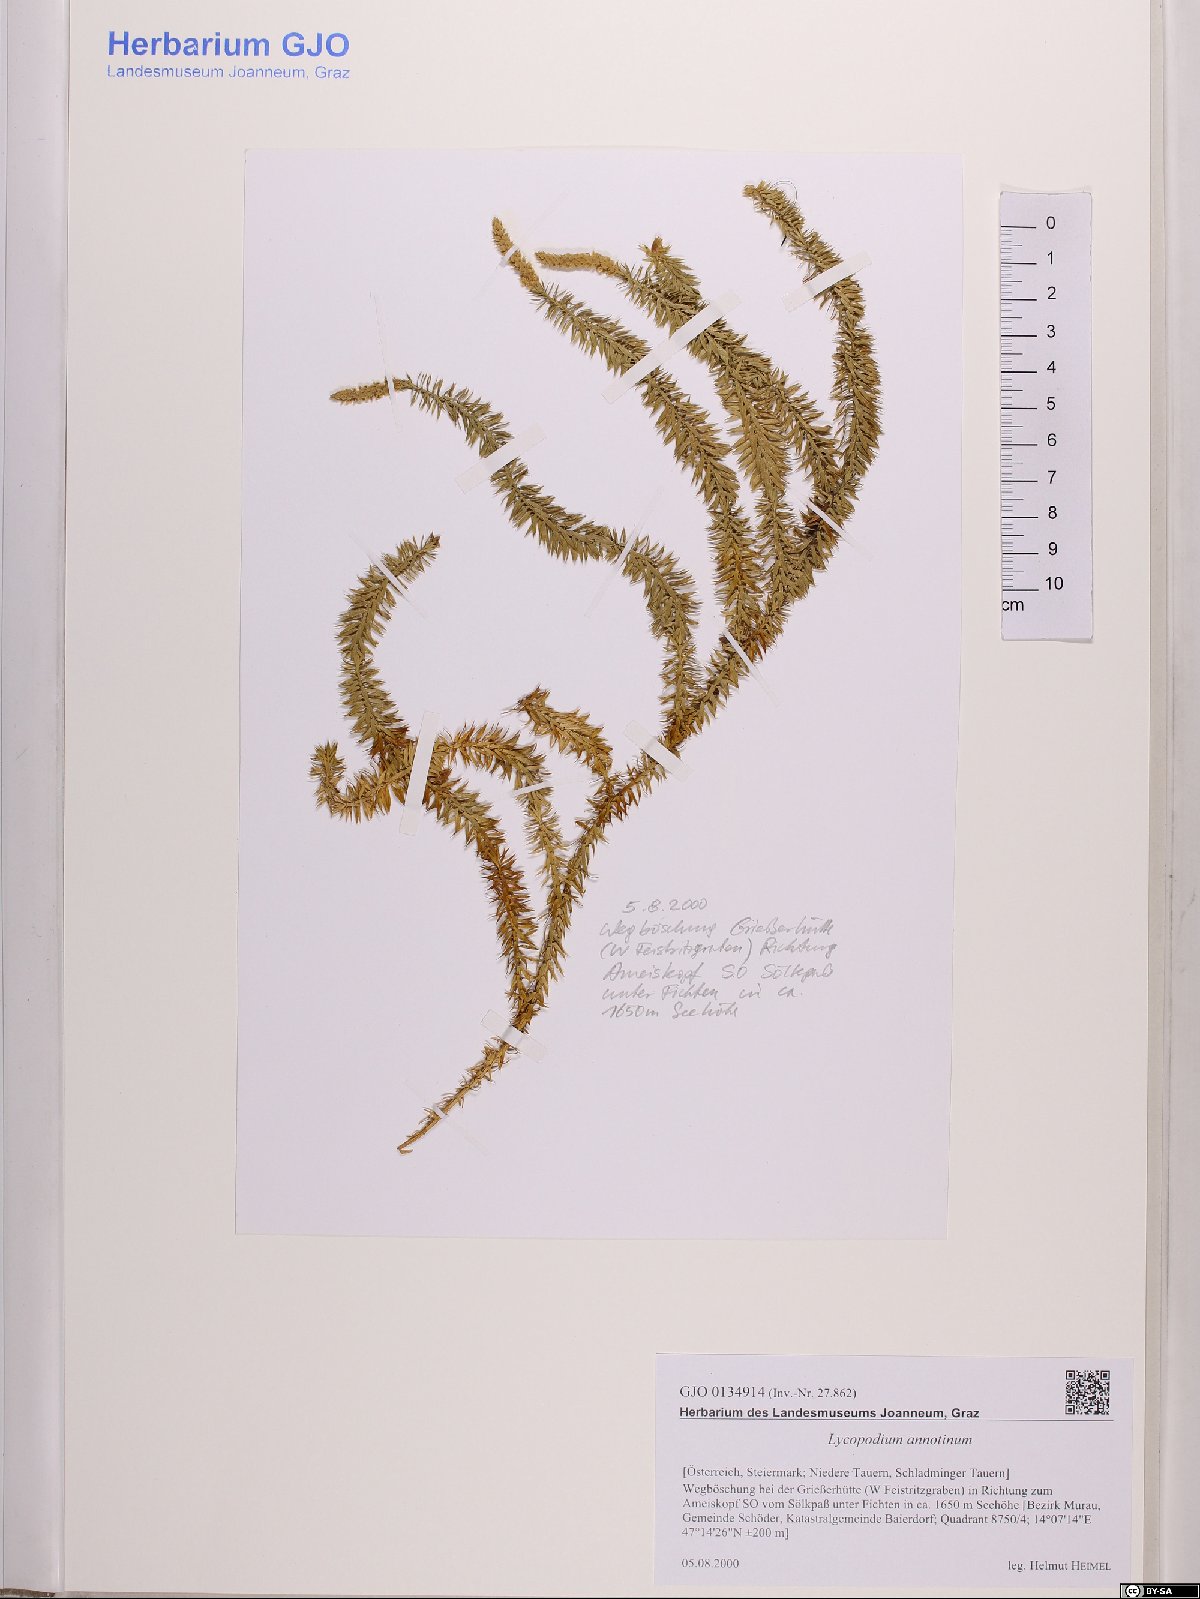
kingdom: Plantae
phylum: Tracheophyta
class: Lycopodiopsida
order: Lycopodiales
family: Lycopodiaceae
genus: Spinulum
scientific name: Spinulum annotinum
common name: Interrupted club-moss
